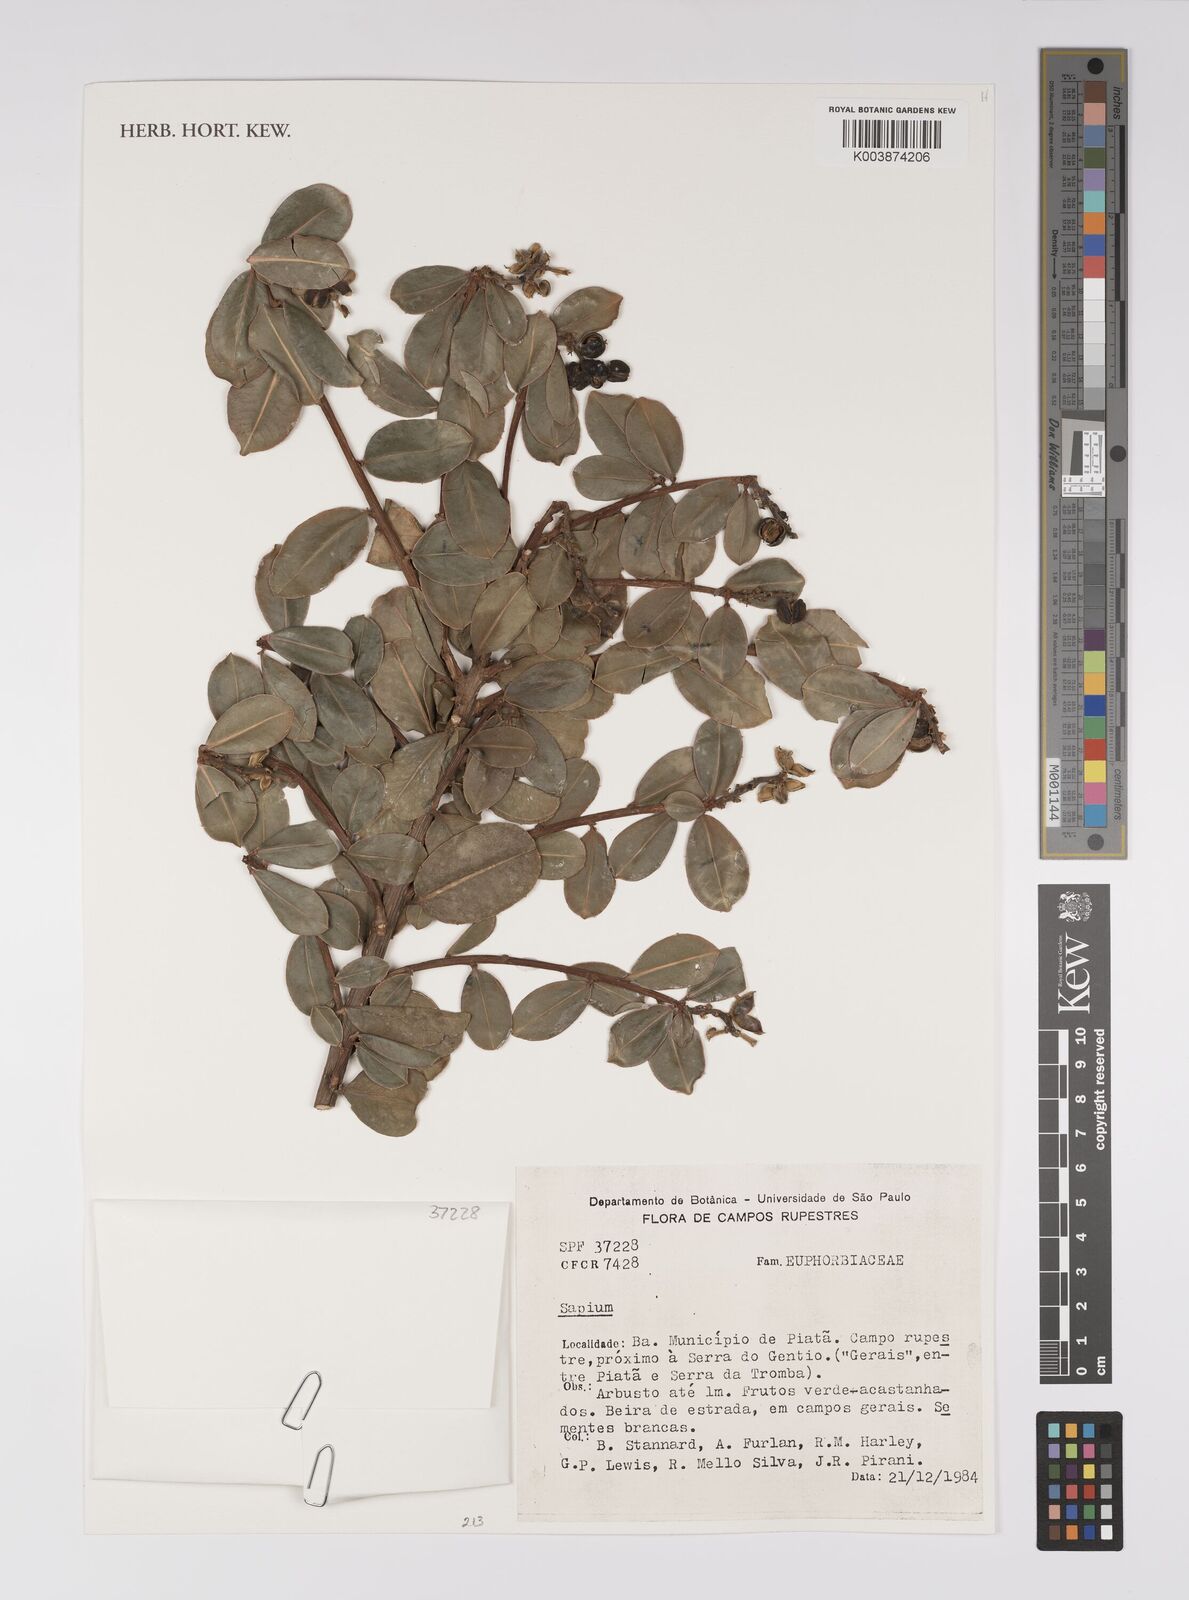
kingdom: Plantae
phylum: Tracheophyta
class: Magnoliopsida
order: Malpighiales
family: Euphorbiaceae
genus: Sapium
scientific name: Sapium
